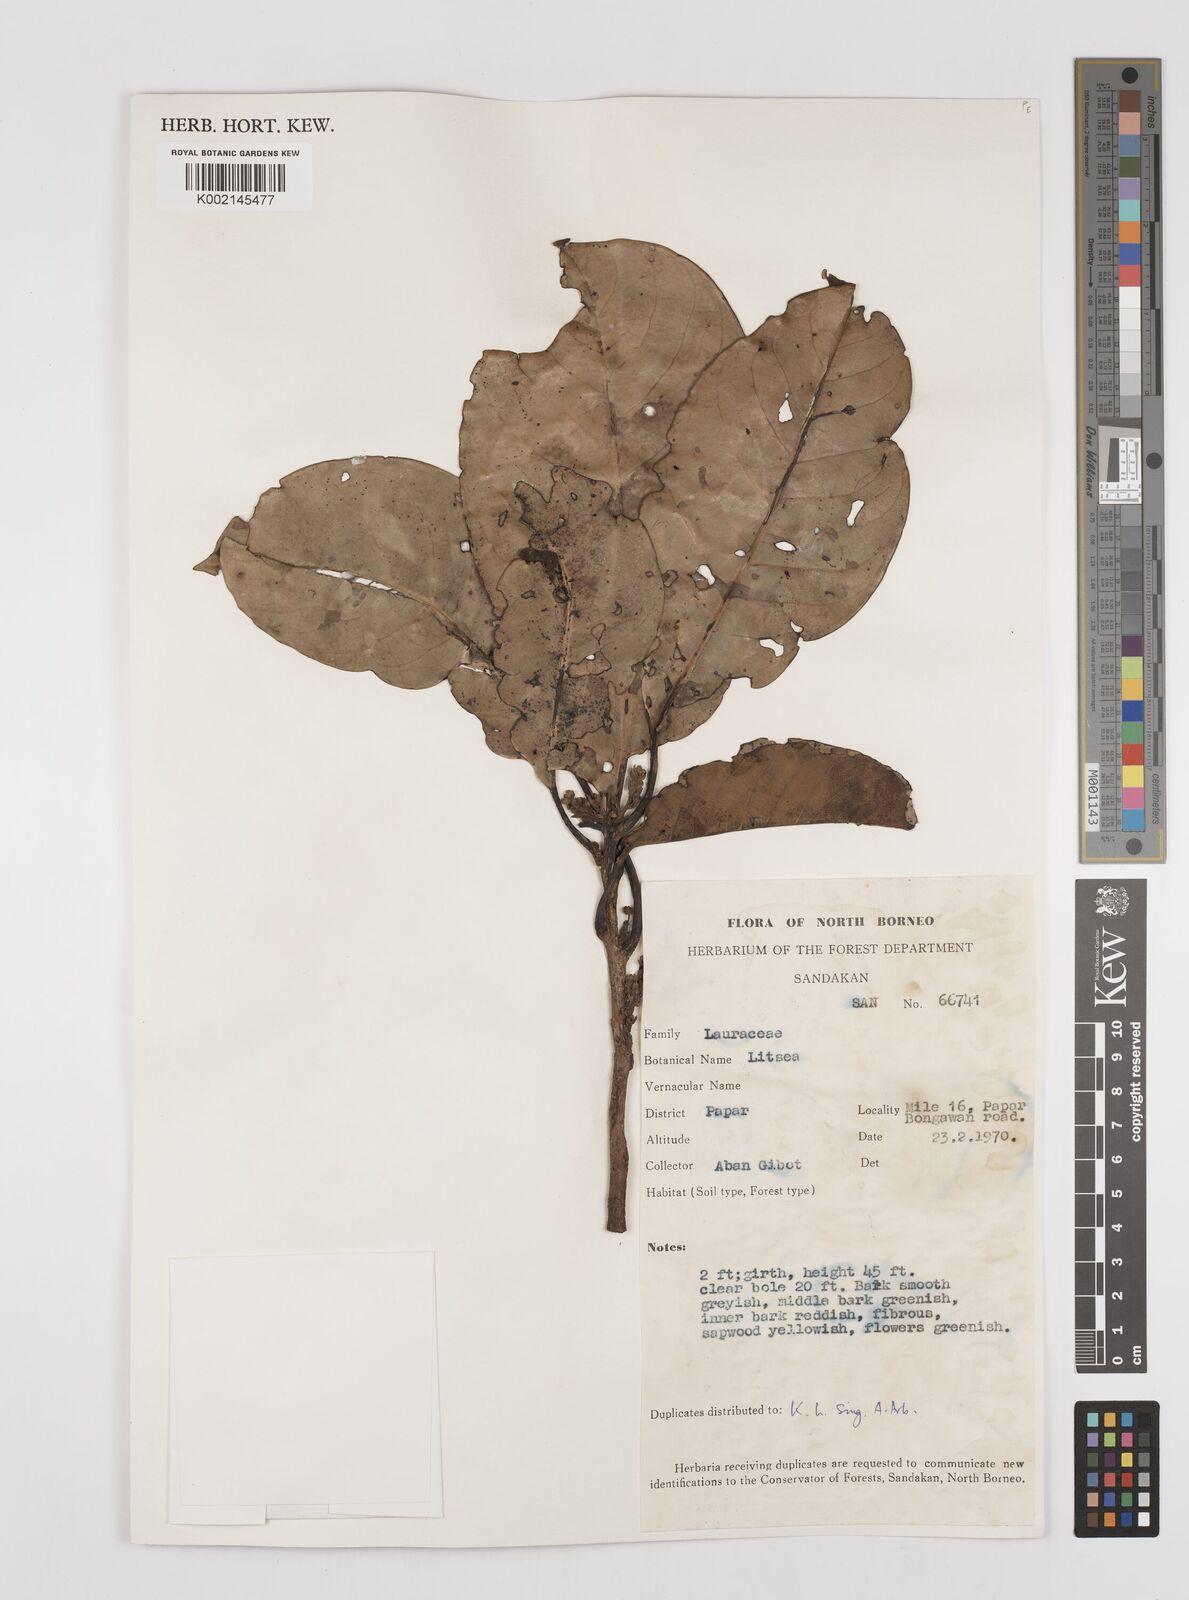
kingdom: Plantae
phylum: Tracheophyta
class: Magnoliopsida
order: Laurales
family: Lauraceae
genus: Litsea
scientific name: Litsea
